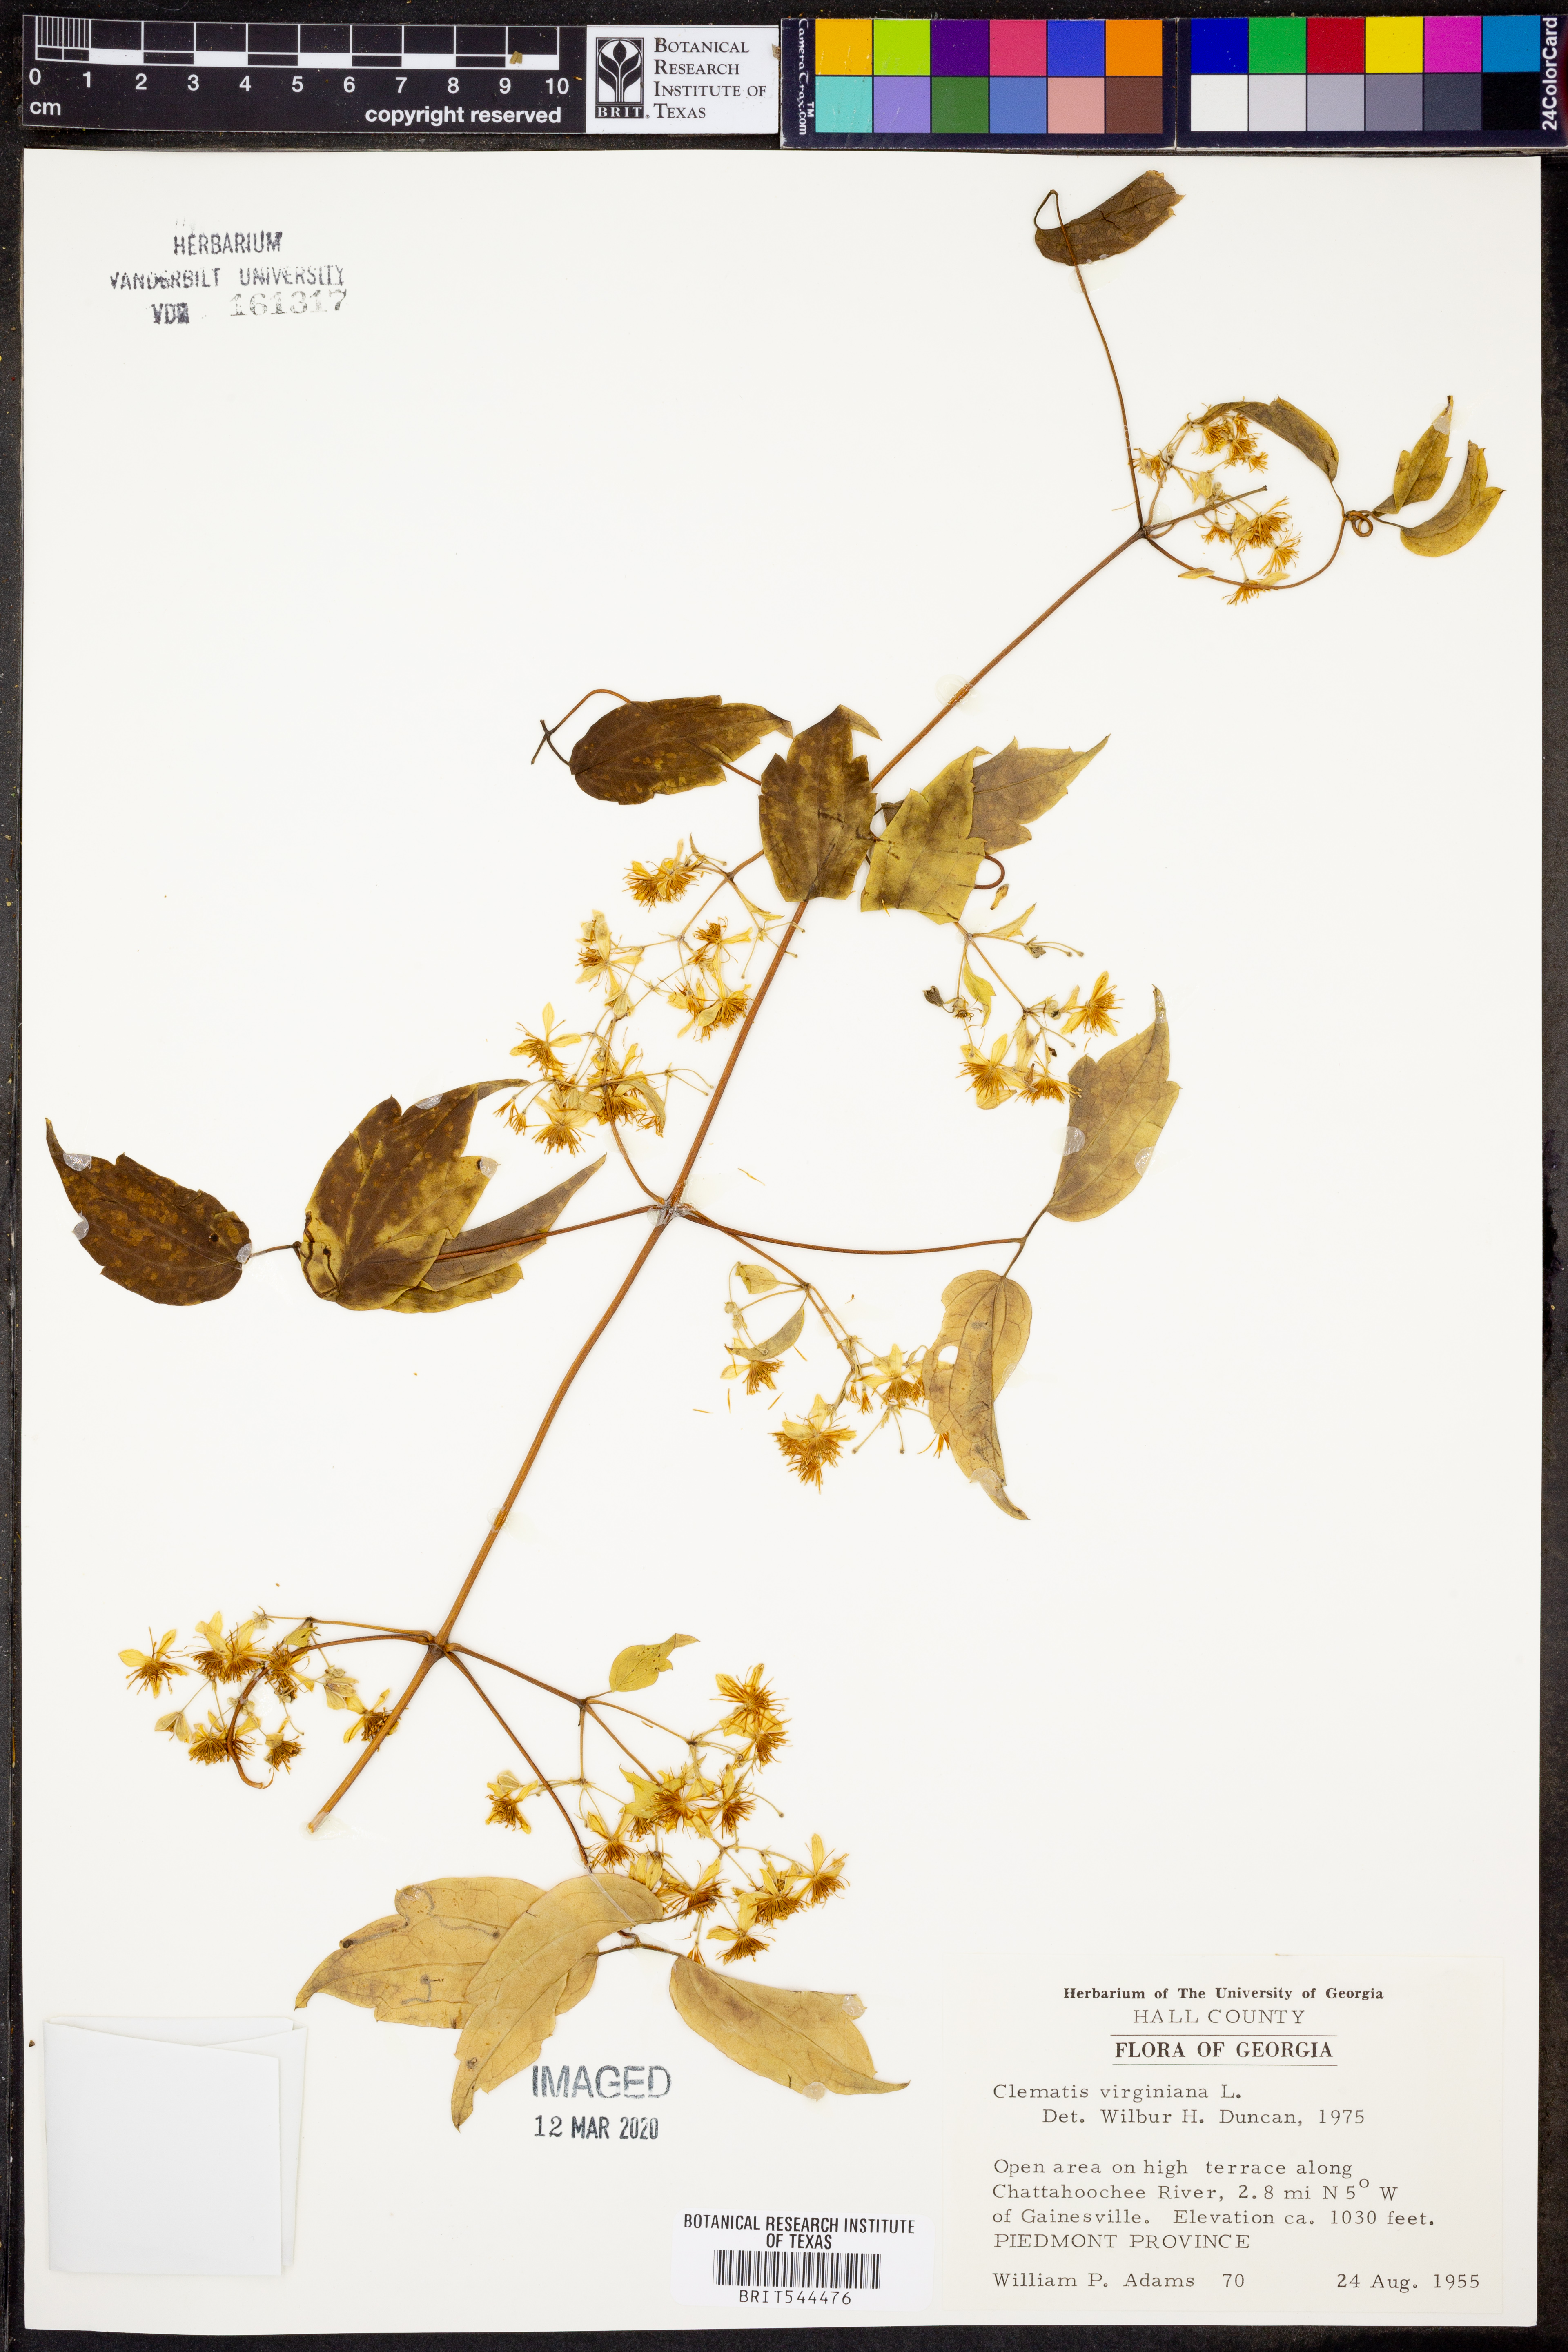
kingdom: Plantae
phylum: Tracheophyta
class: Magnoliopsida
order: Ranunculales
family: Ranunculaceae
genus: Clematis
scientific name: Clematis virginiana
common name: Virgin's-bower
